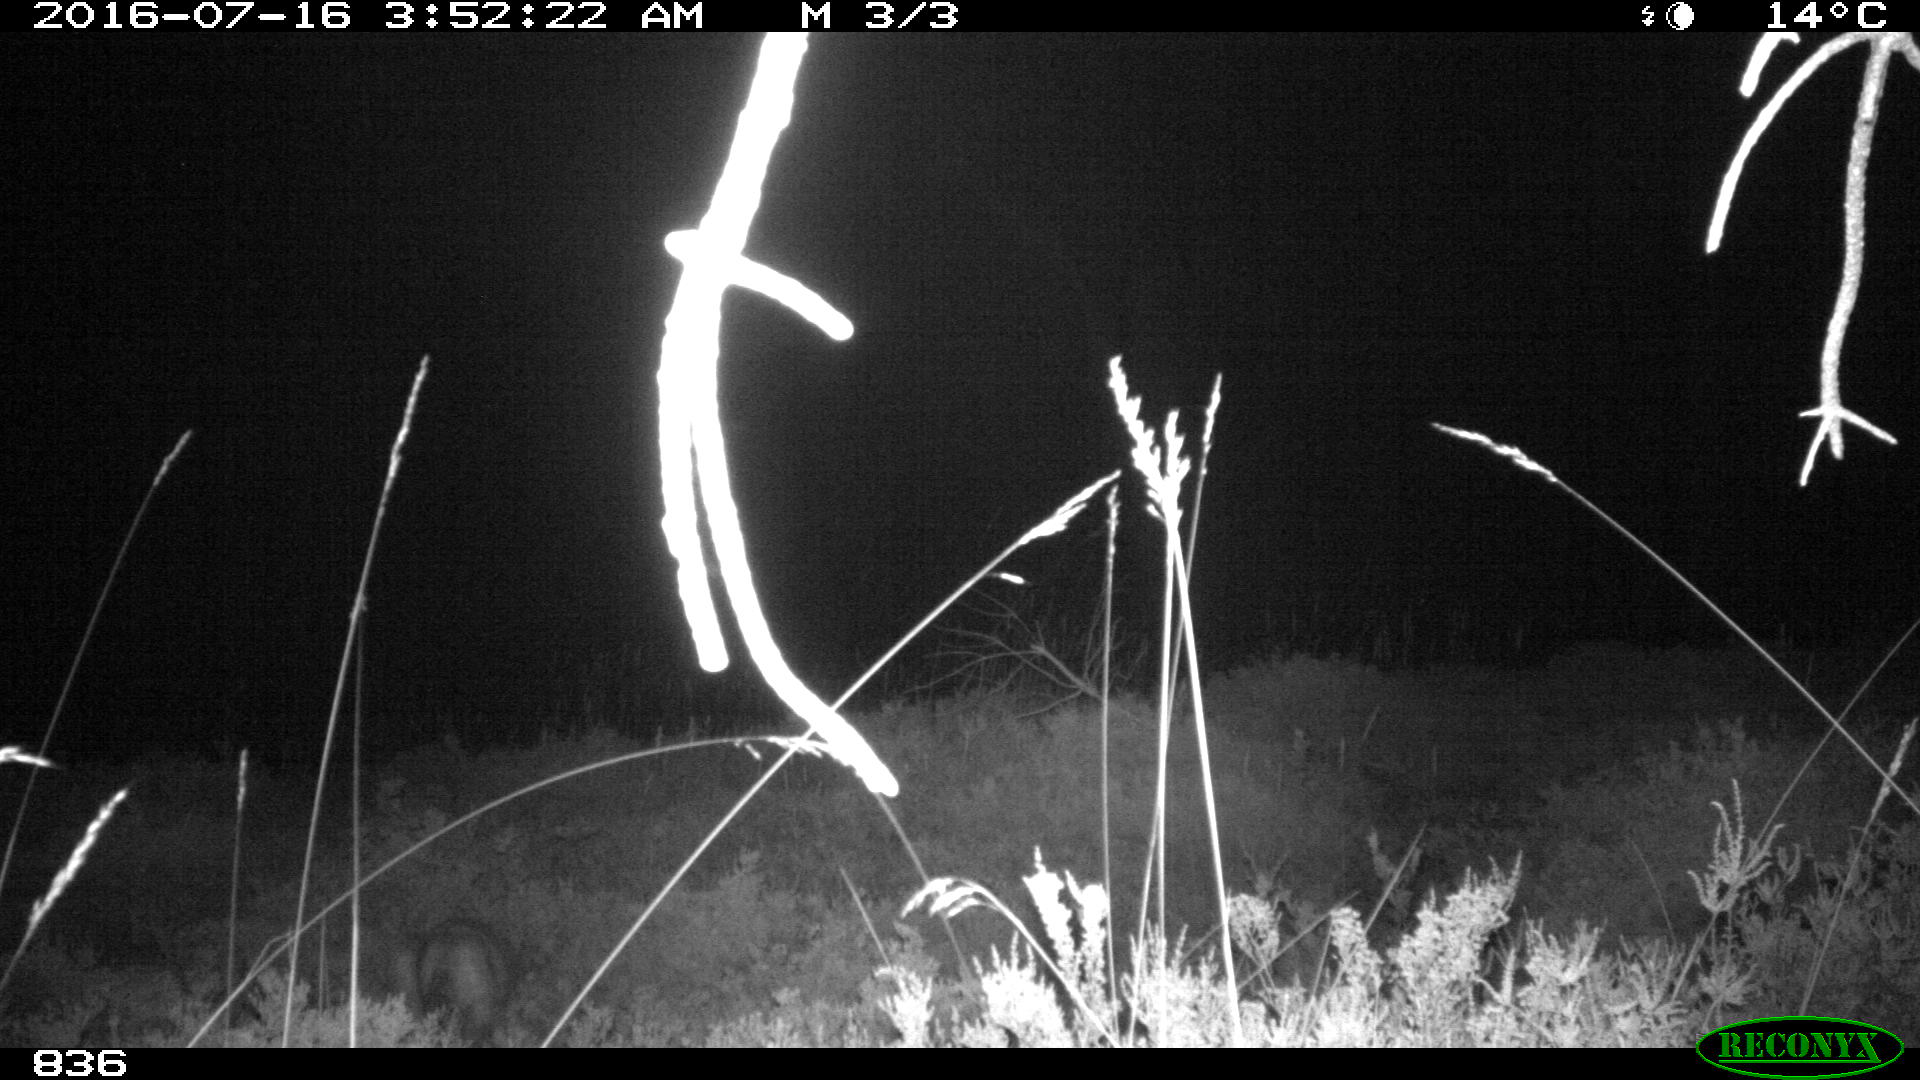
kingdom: Animalia
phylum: Chordata
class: Mammalia
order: Carnivora
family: Canidae
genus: Vulpes
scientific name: Vulpes vulpes
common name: Red fox
